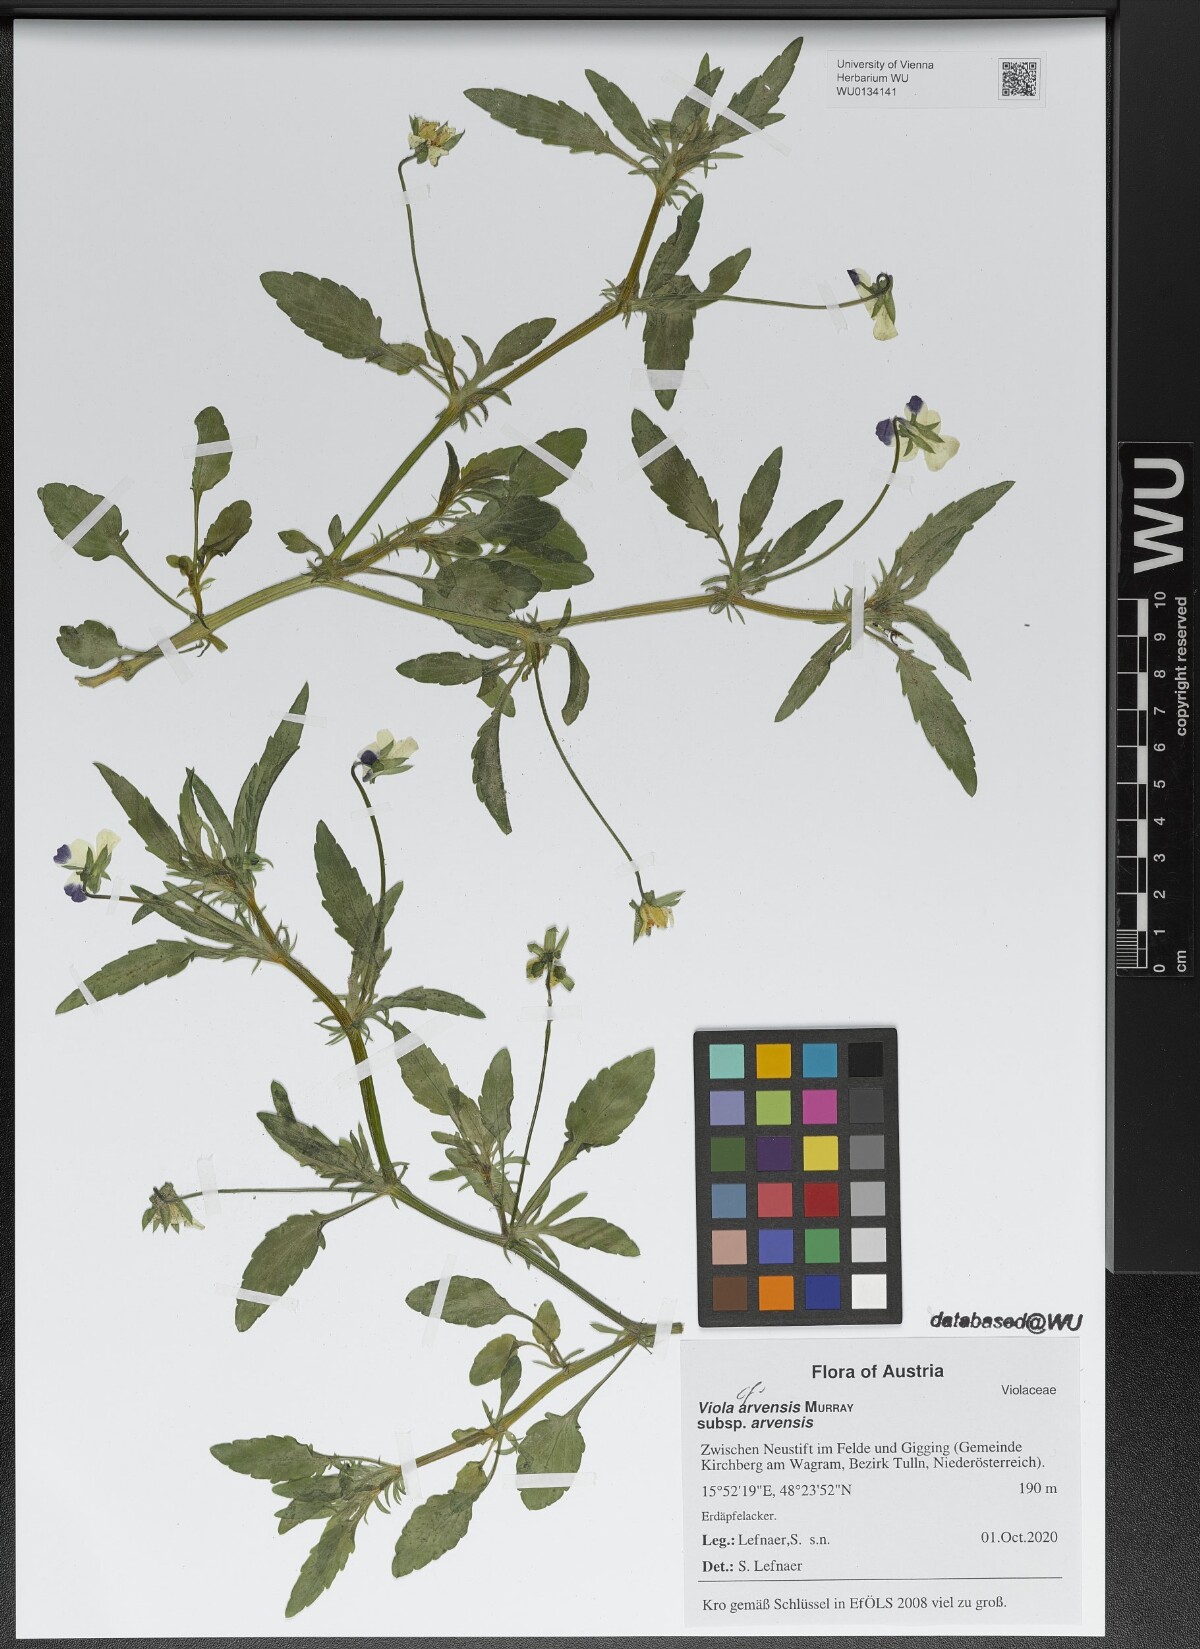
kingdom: Plantae
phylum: Tracheophyta
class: Magnoliopsida
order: Malpighiales
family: Violaceae
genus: Viola
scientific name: Viola arvensis
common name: Field pansy
